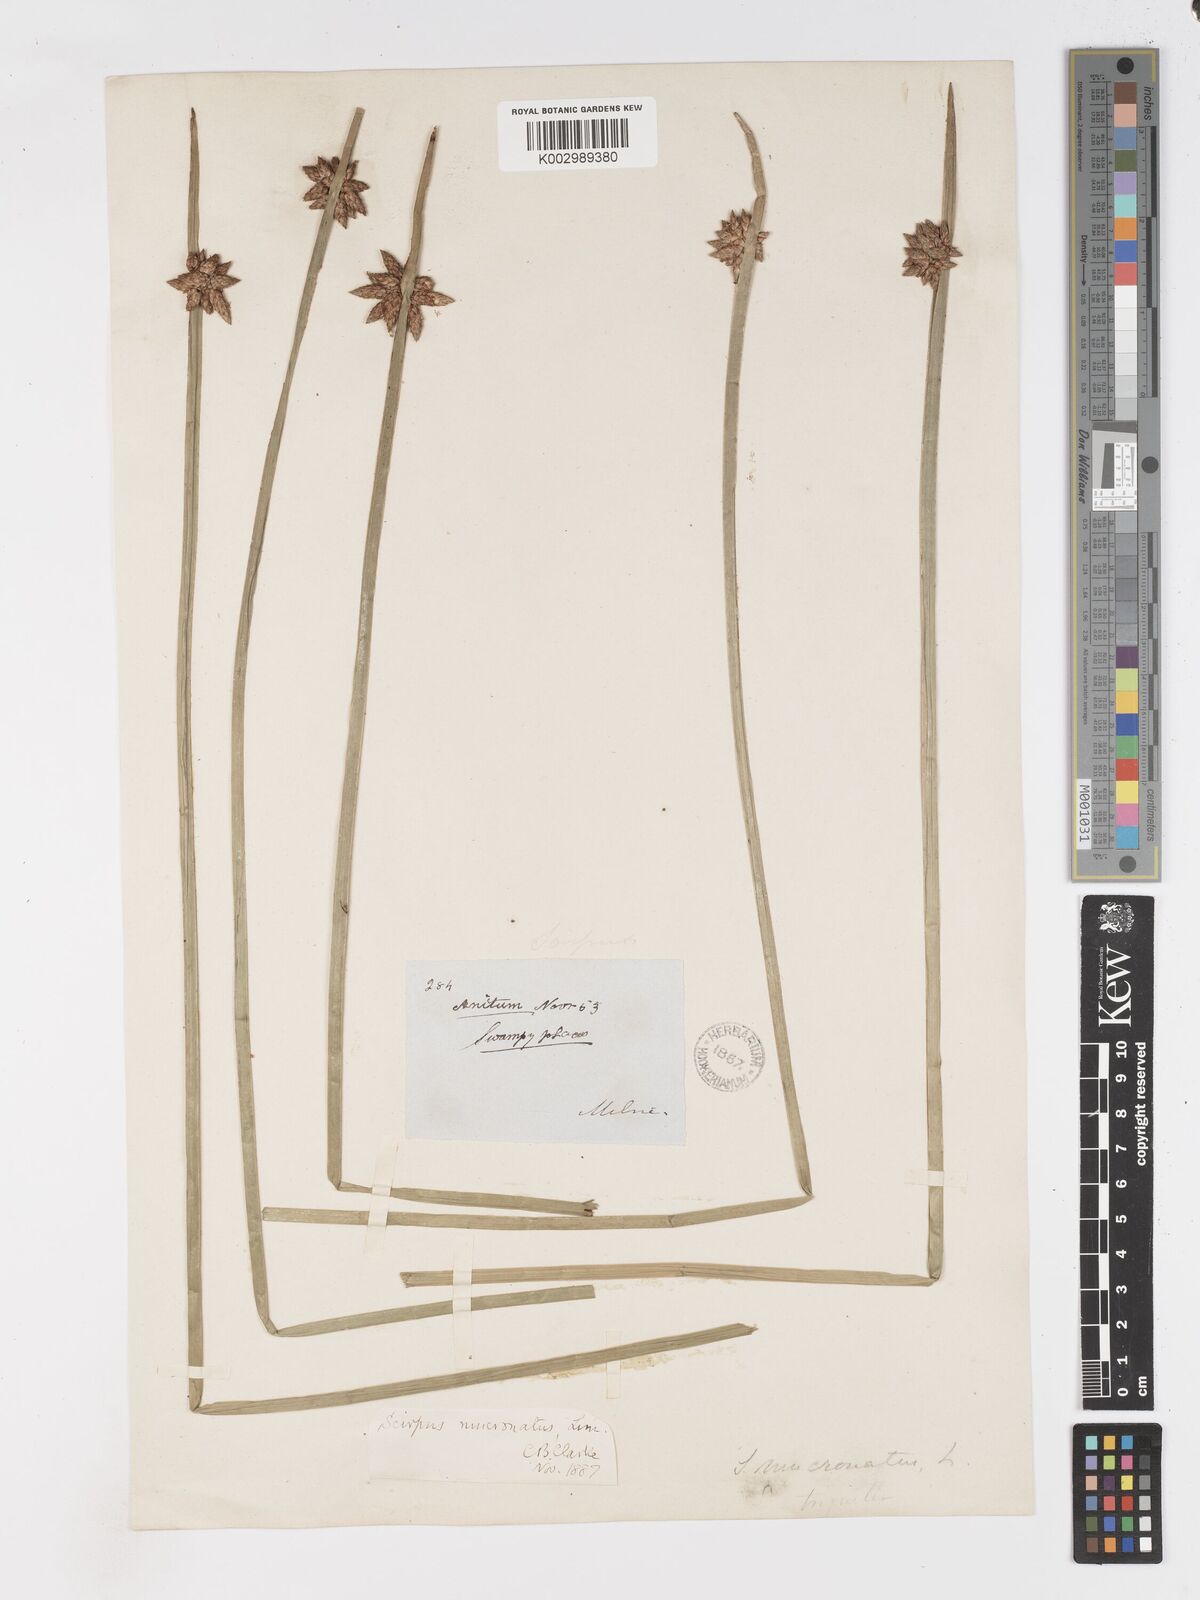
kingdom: Plantae
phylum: Tracheophyta
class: Liliopsida
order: Poales
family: Cyperaceae
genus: Schoenoplectiella
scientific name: Schoenoplectiella mucronata
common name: Bog bulrush
